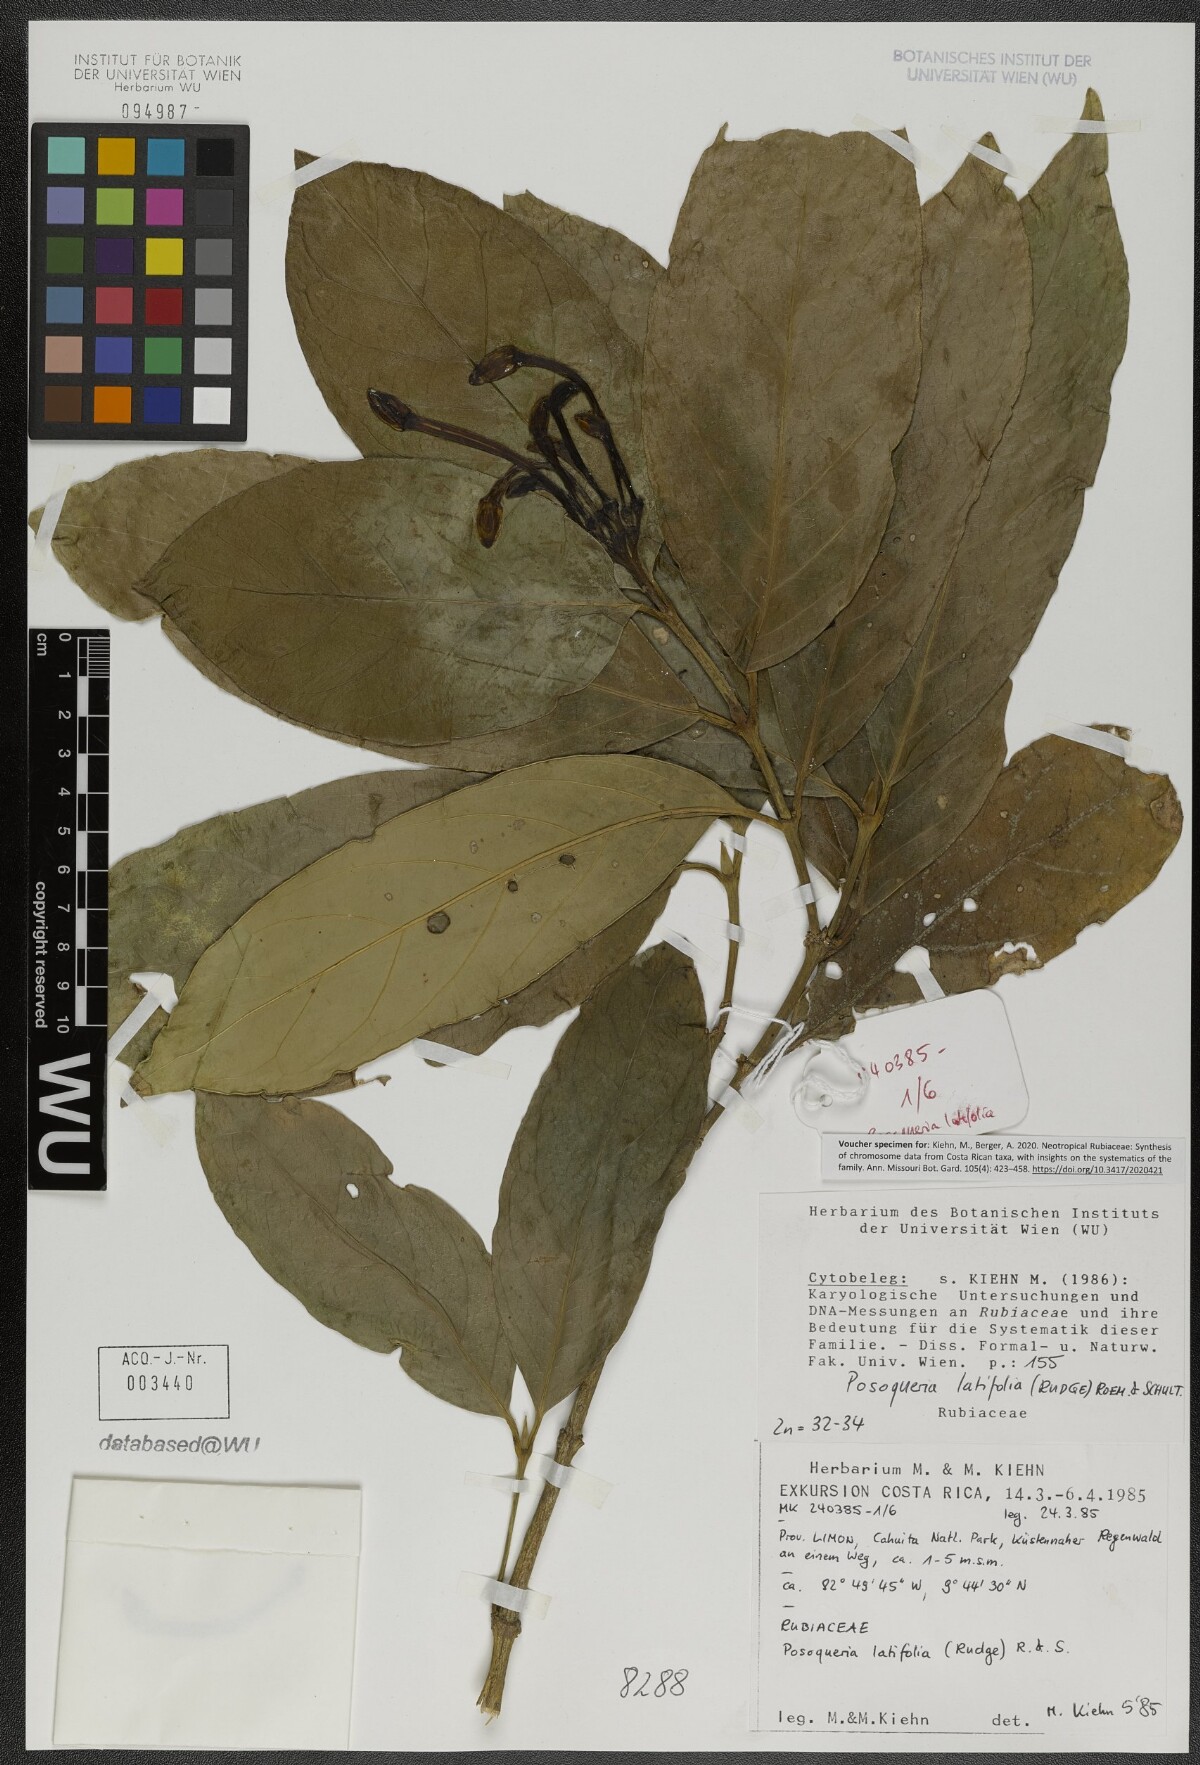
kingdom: Plantae
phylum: Tracheophyta
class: Magnoliopsida
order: Gentianales
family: Rubiaceae
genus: Posoqueria
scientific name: Posoqueria latifolia
